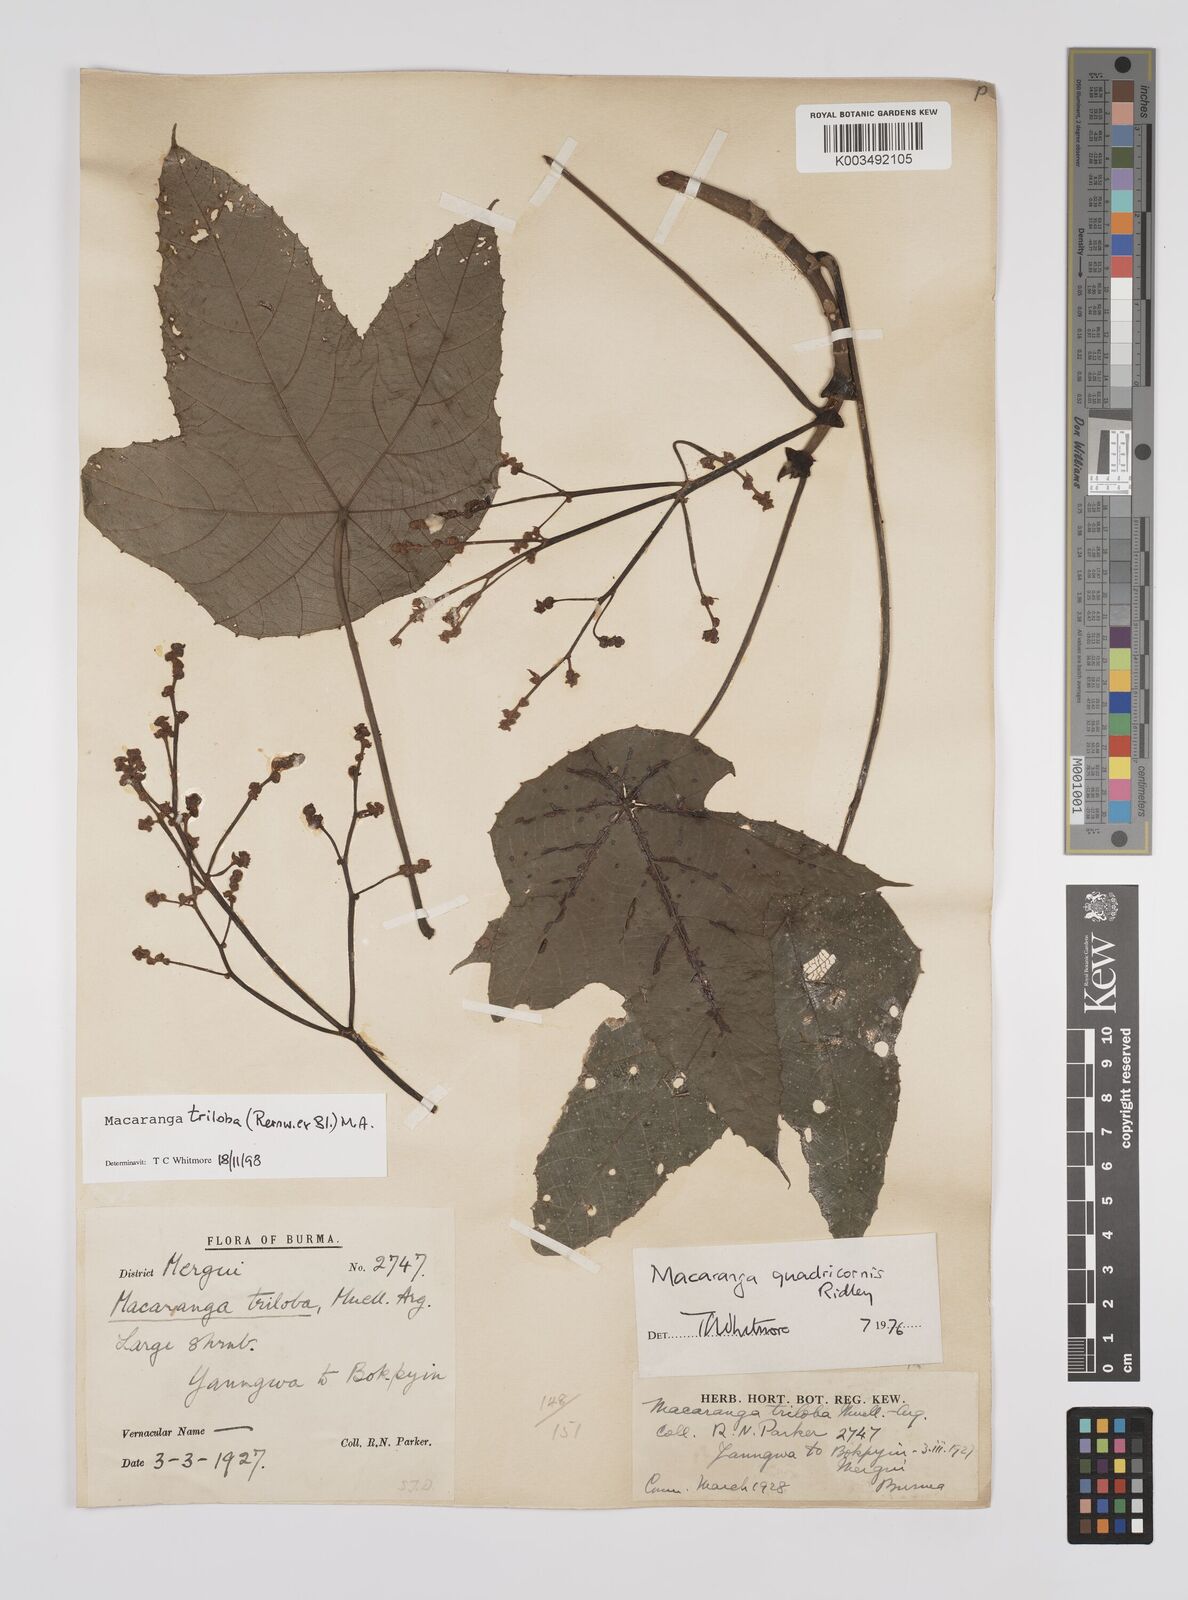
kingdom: Plantae
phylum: Tracheophyta
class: Magnoliopsida
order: Malpighiales
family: Euphorbiaceae
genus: Macaranga
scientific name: Macaranga triloba
